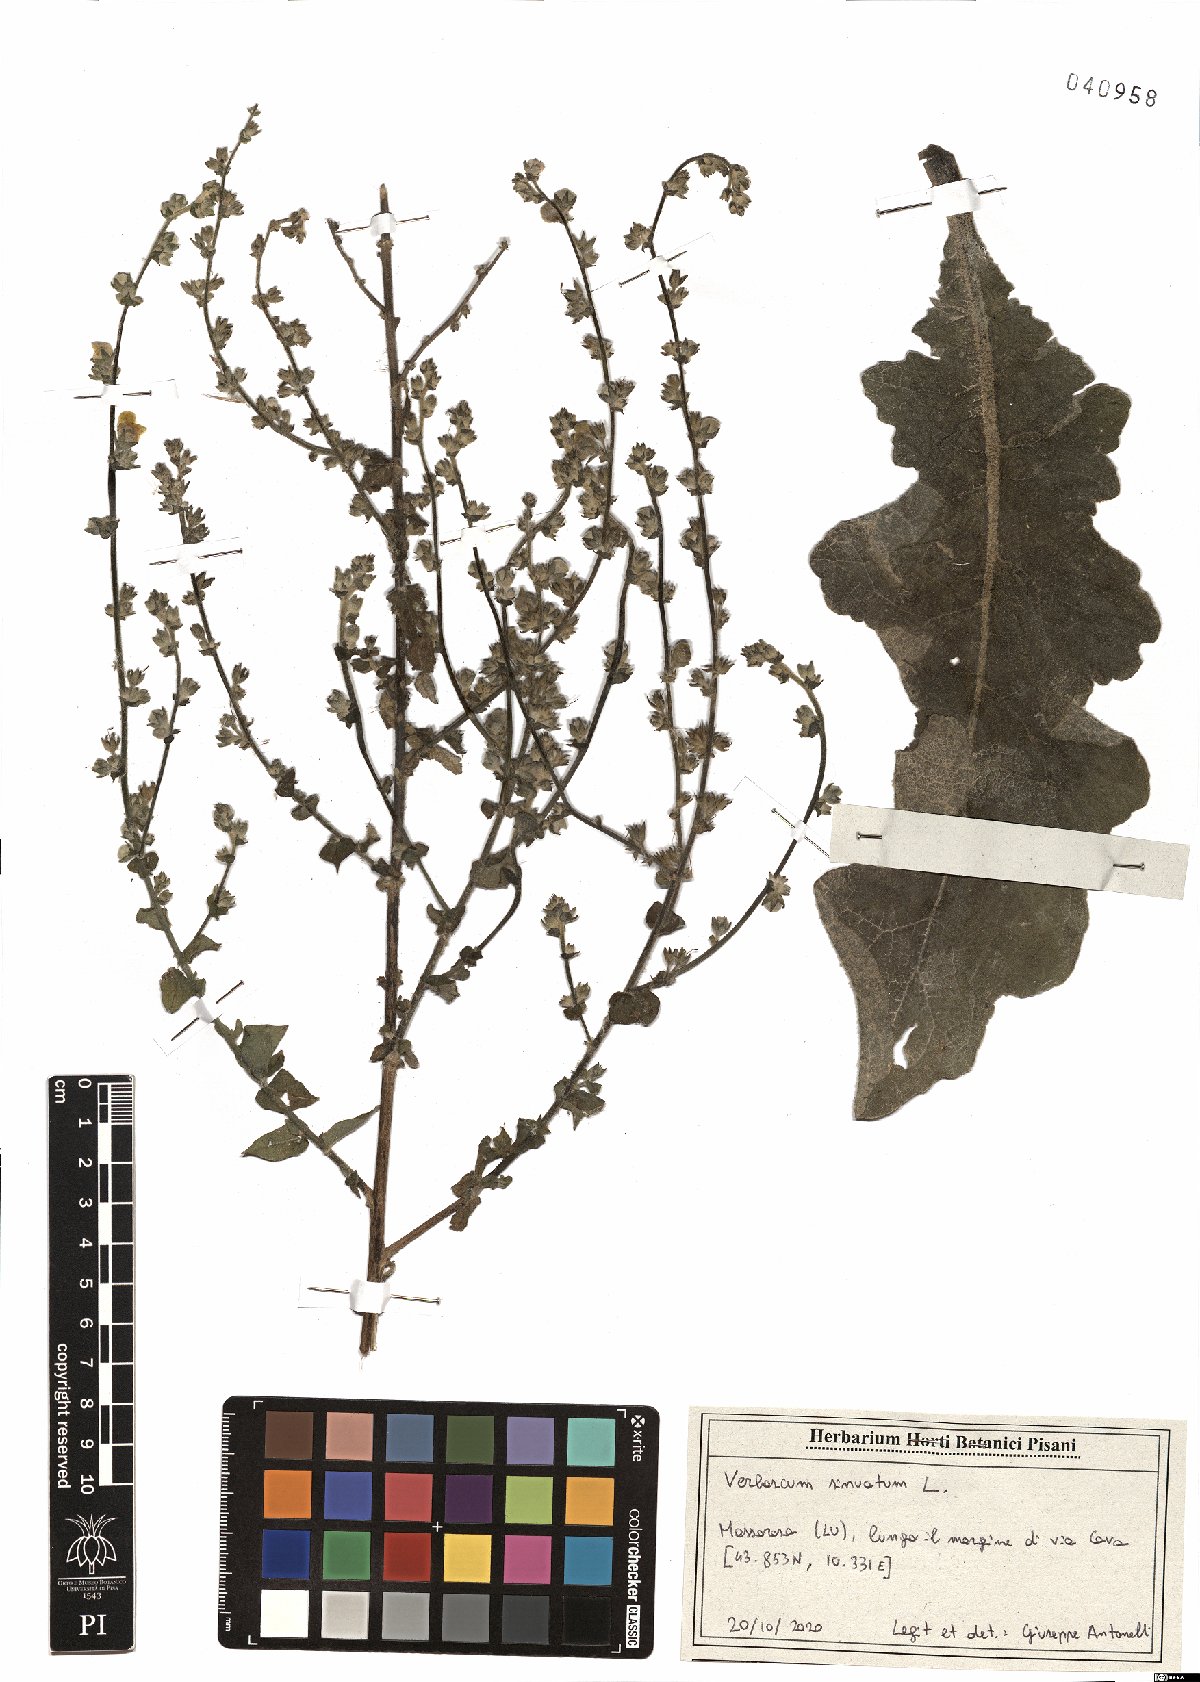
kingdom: Plantae
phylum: Tracheophyta
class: Magnoliopsida
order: Lamiales
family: Scrophulariaceae
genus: Verbascum
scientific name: Verbascum sinuatum
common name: Wavyleaf mullein
